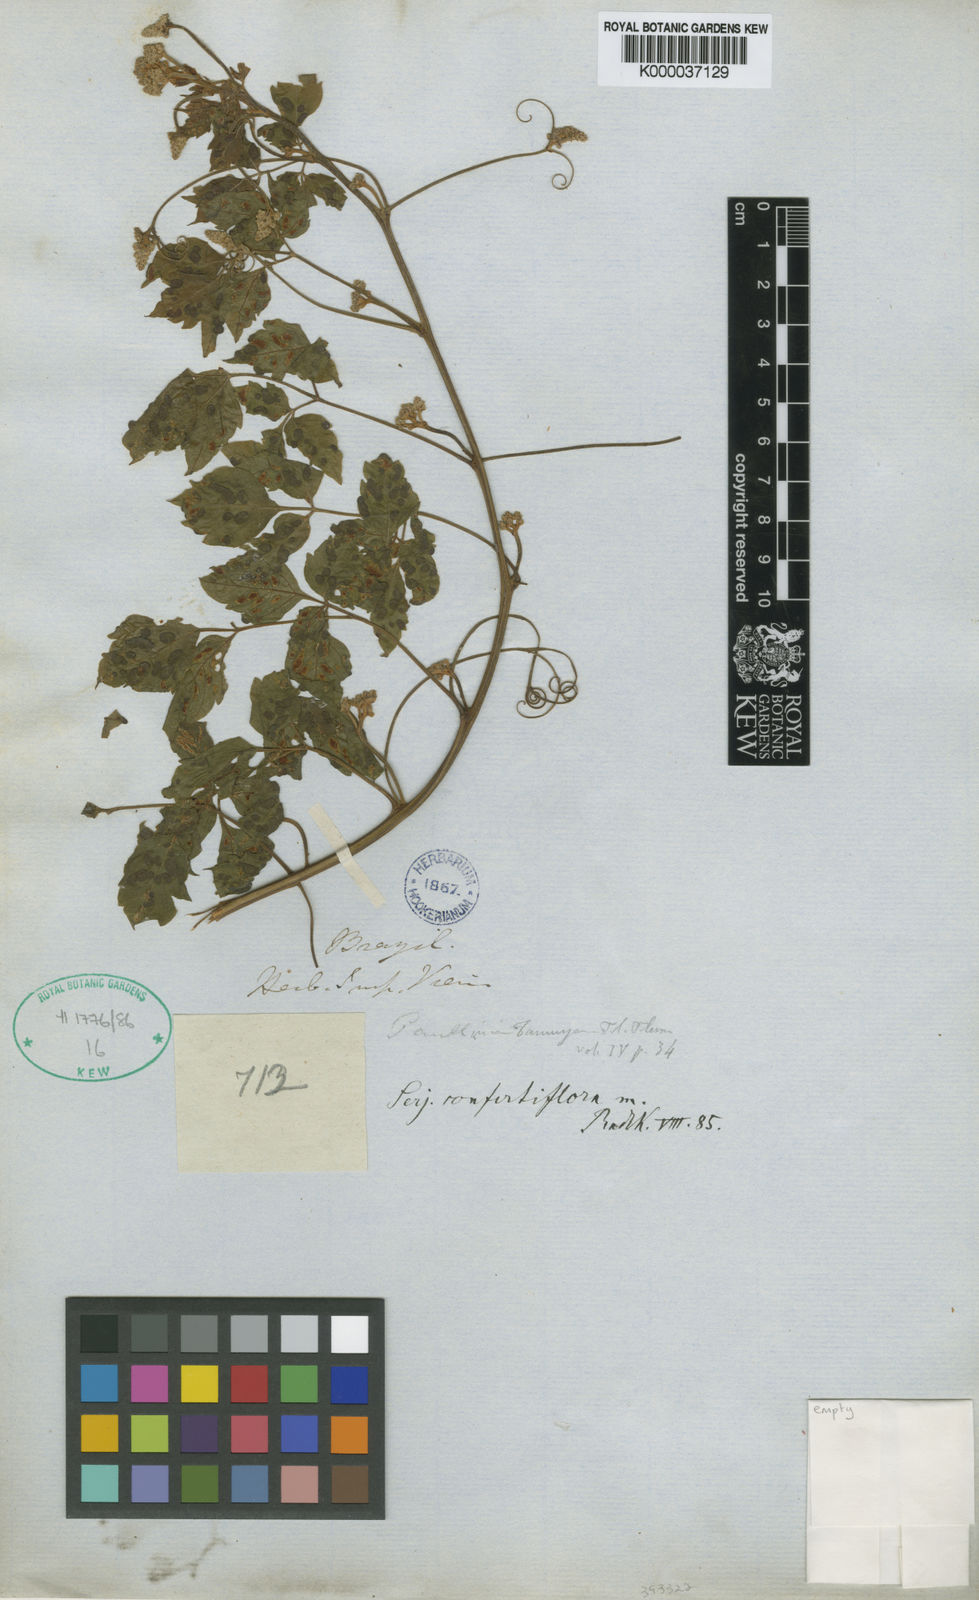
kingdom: Plantae
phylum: Tracheophyta
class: Magnoliopsida
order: Sapindales
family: Sapindaceae
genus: Serjania
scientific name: Serjania confertiflora
